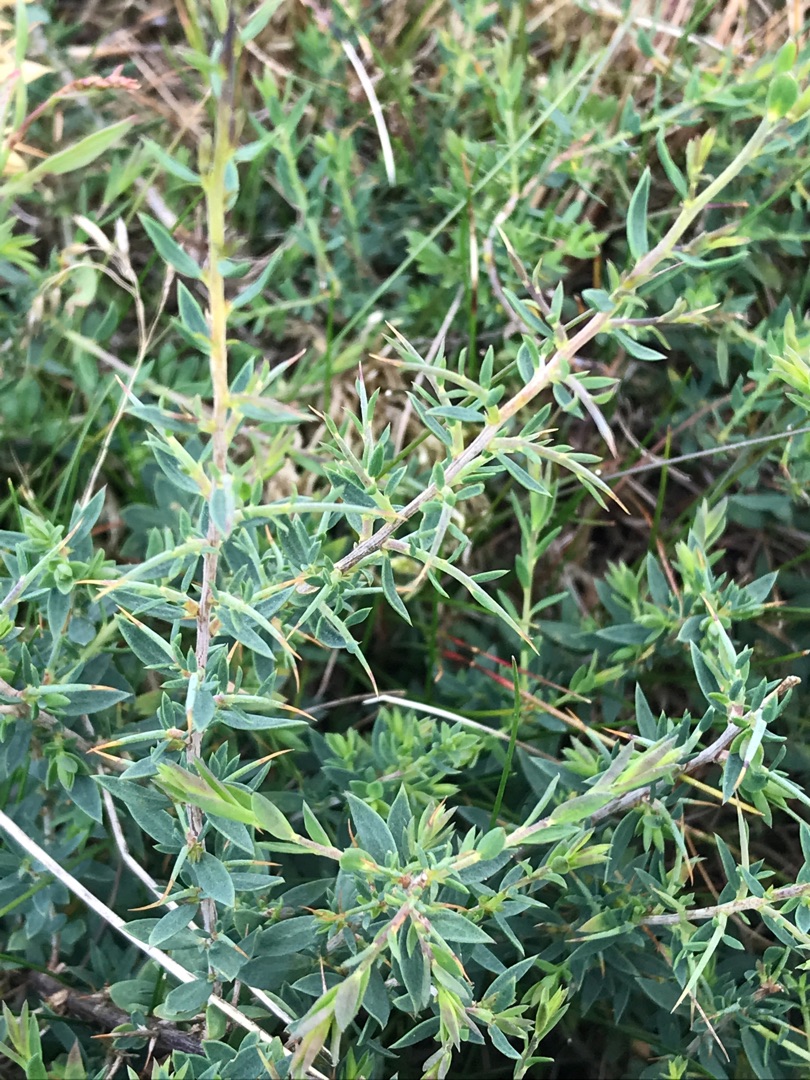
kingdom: Plantae
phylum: Tracheophyta
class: Magnoliopsida
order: Fabales
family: Fabaceae
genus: Genista
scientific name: Genista anglica
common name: Engelsk visse
